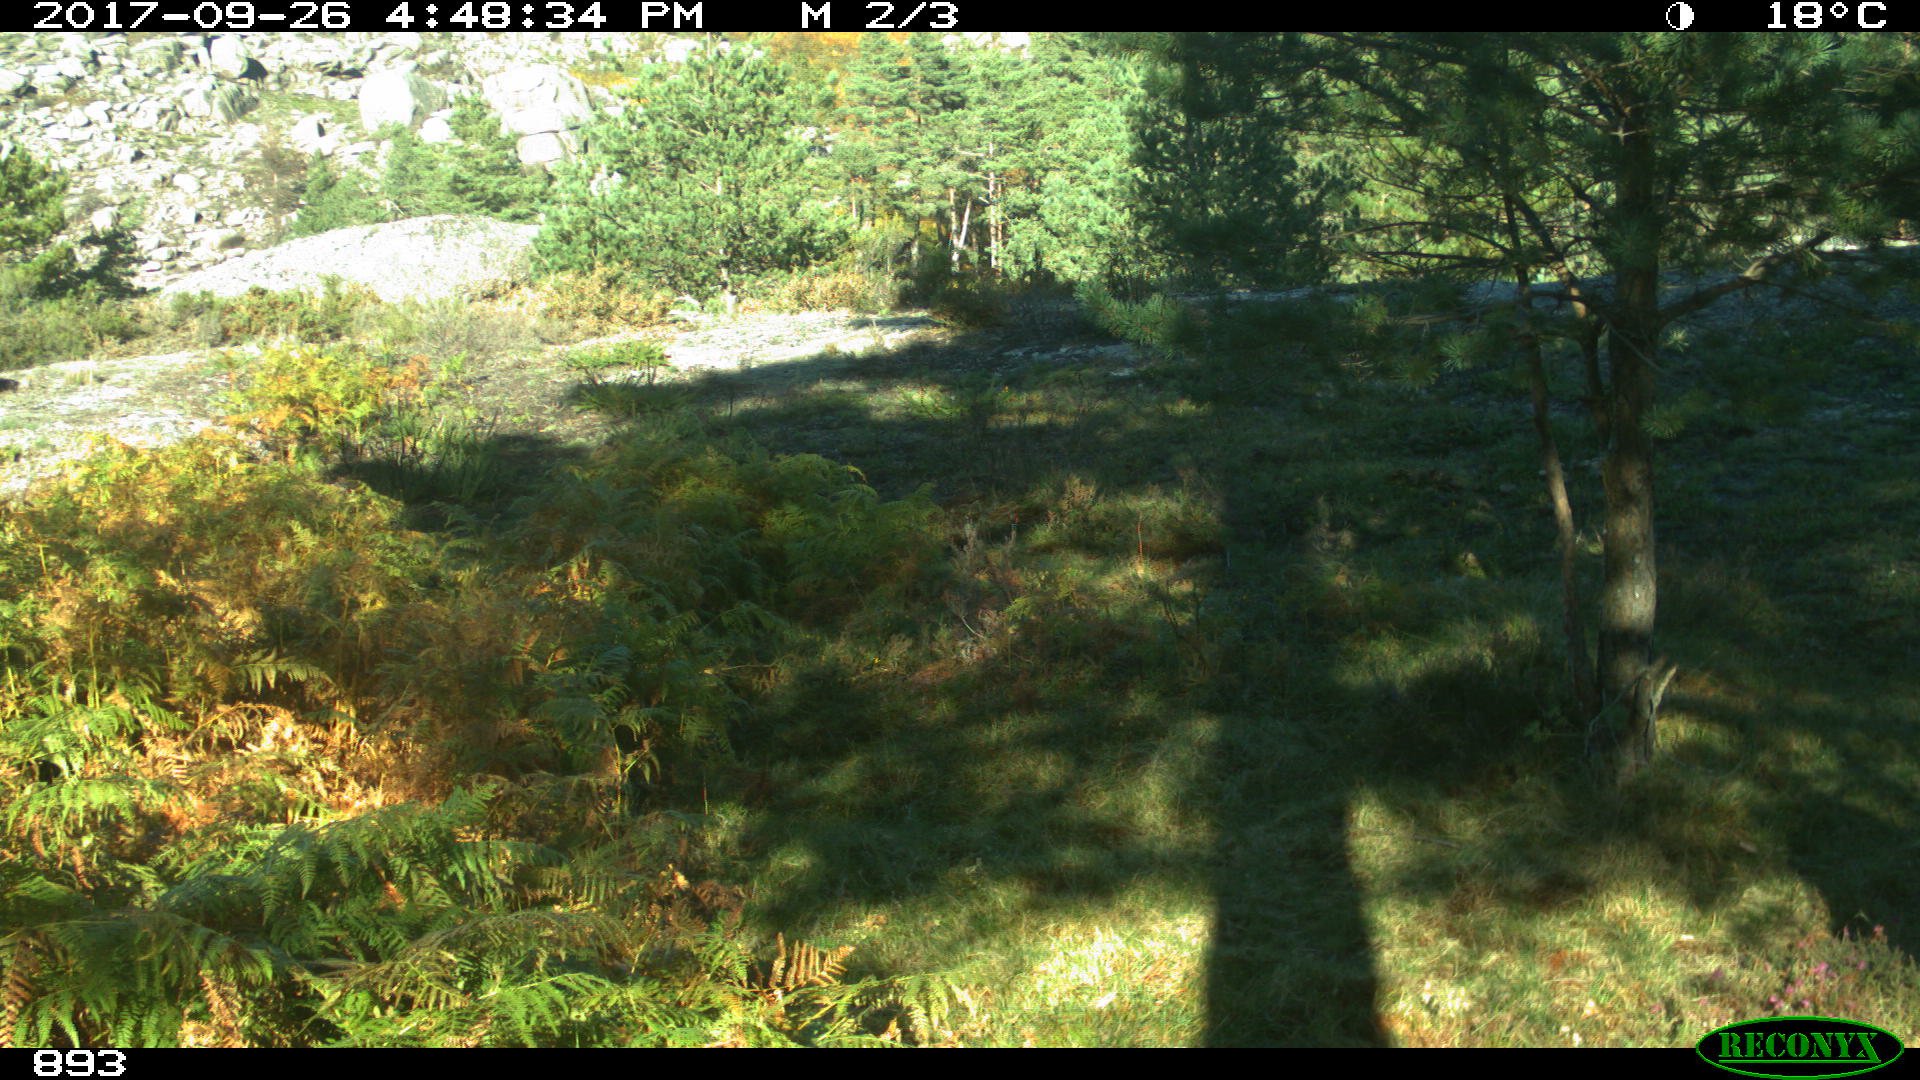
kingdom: Animalia
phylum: Chordata
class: Mammalia
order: Artiodactyla
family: Bovidae
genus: Bos
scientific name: Bos taurus
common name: Domesticated cattle
